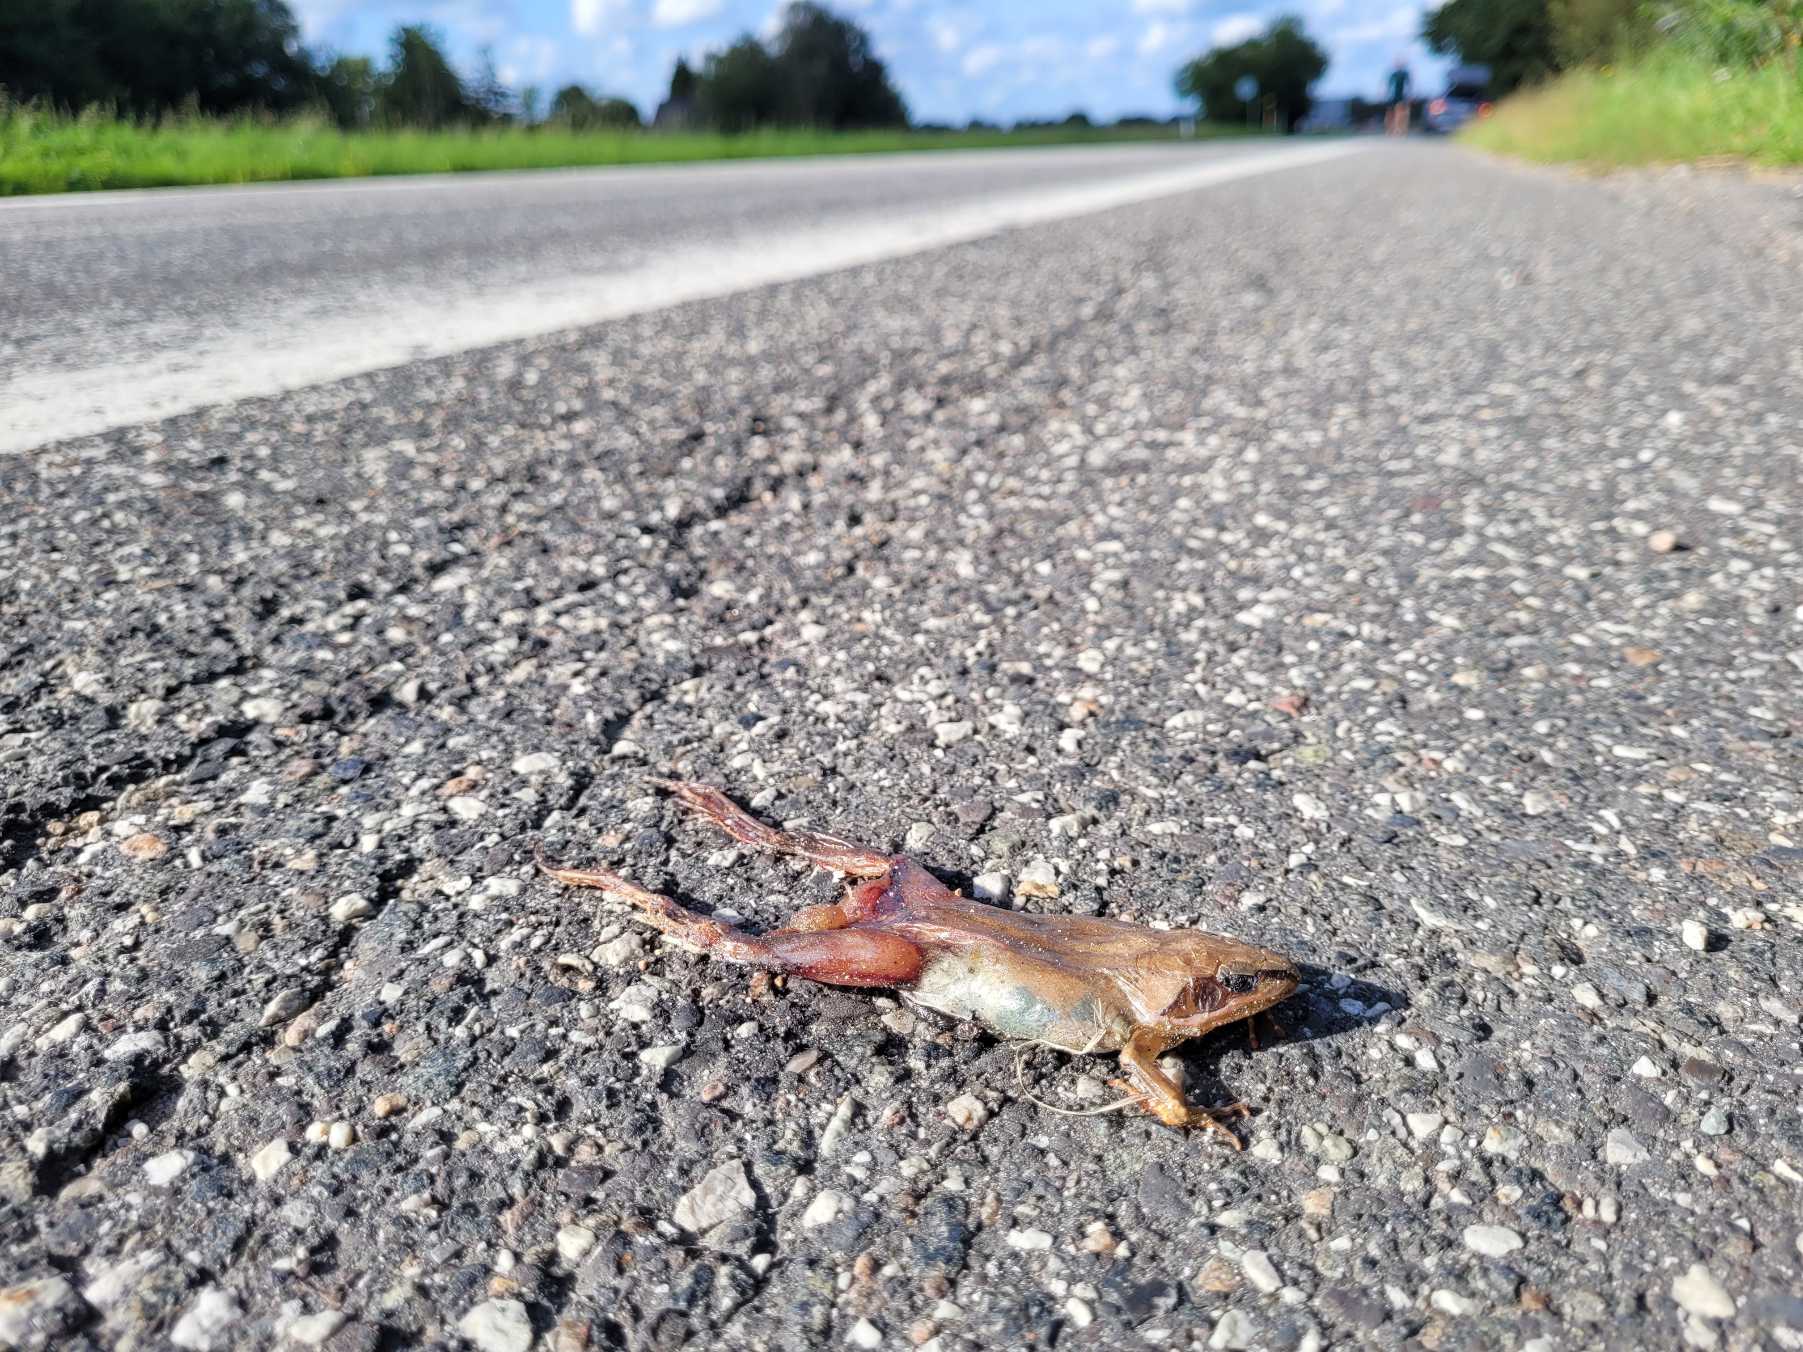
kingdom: Animalia
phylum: Chordata
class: Amphibia
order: Anura
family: Ranidae
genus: Rana
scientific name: Rana dalmatina
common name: Springfrø
